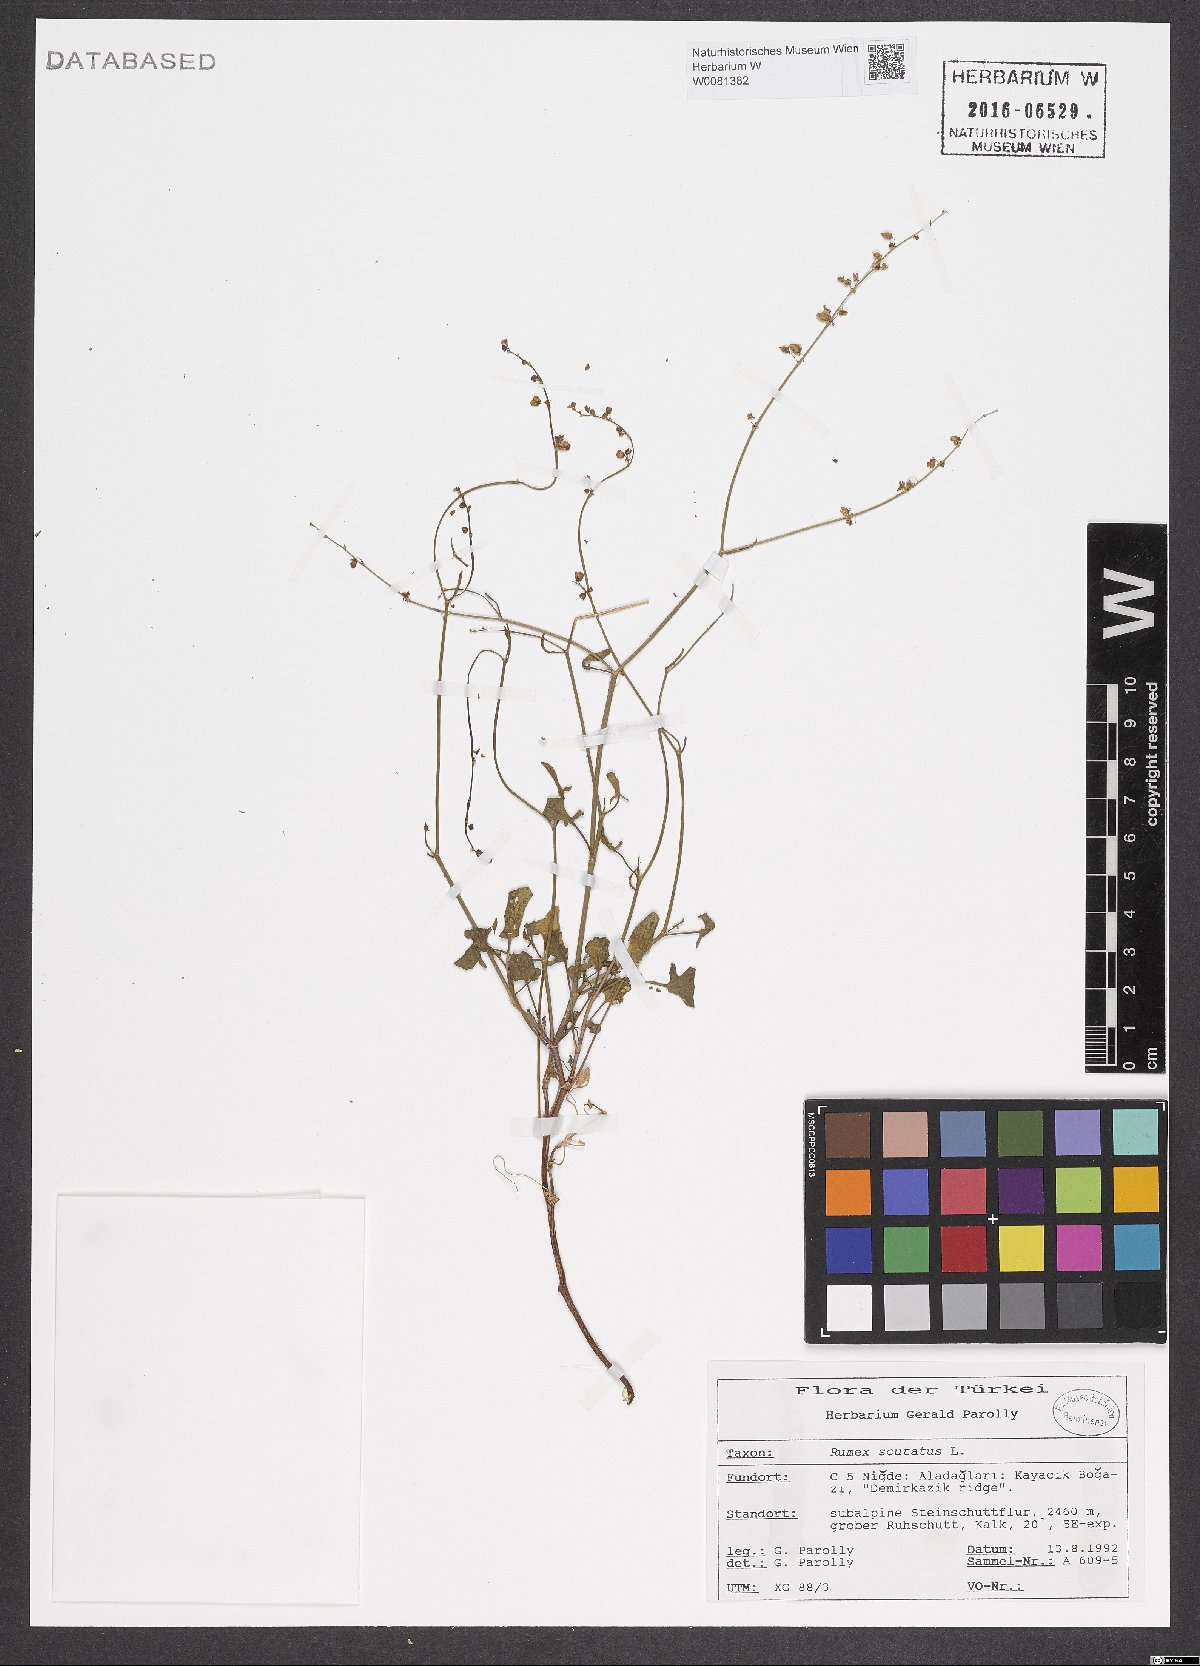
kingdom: Plantae
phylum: Tracheophyta
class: Magnoliopsida
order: Caryophyllales
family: Polygonaceae
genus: Rumex
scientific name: Rumex scutatus
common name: French sorrel
